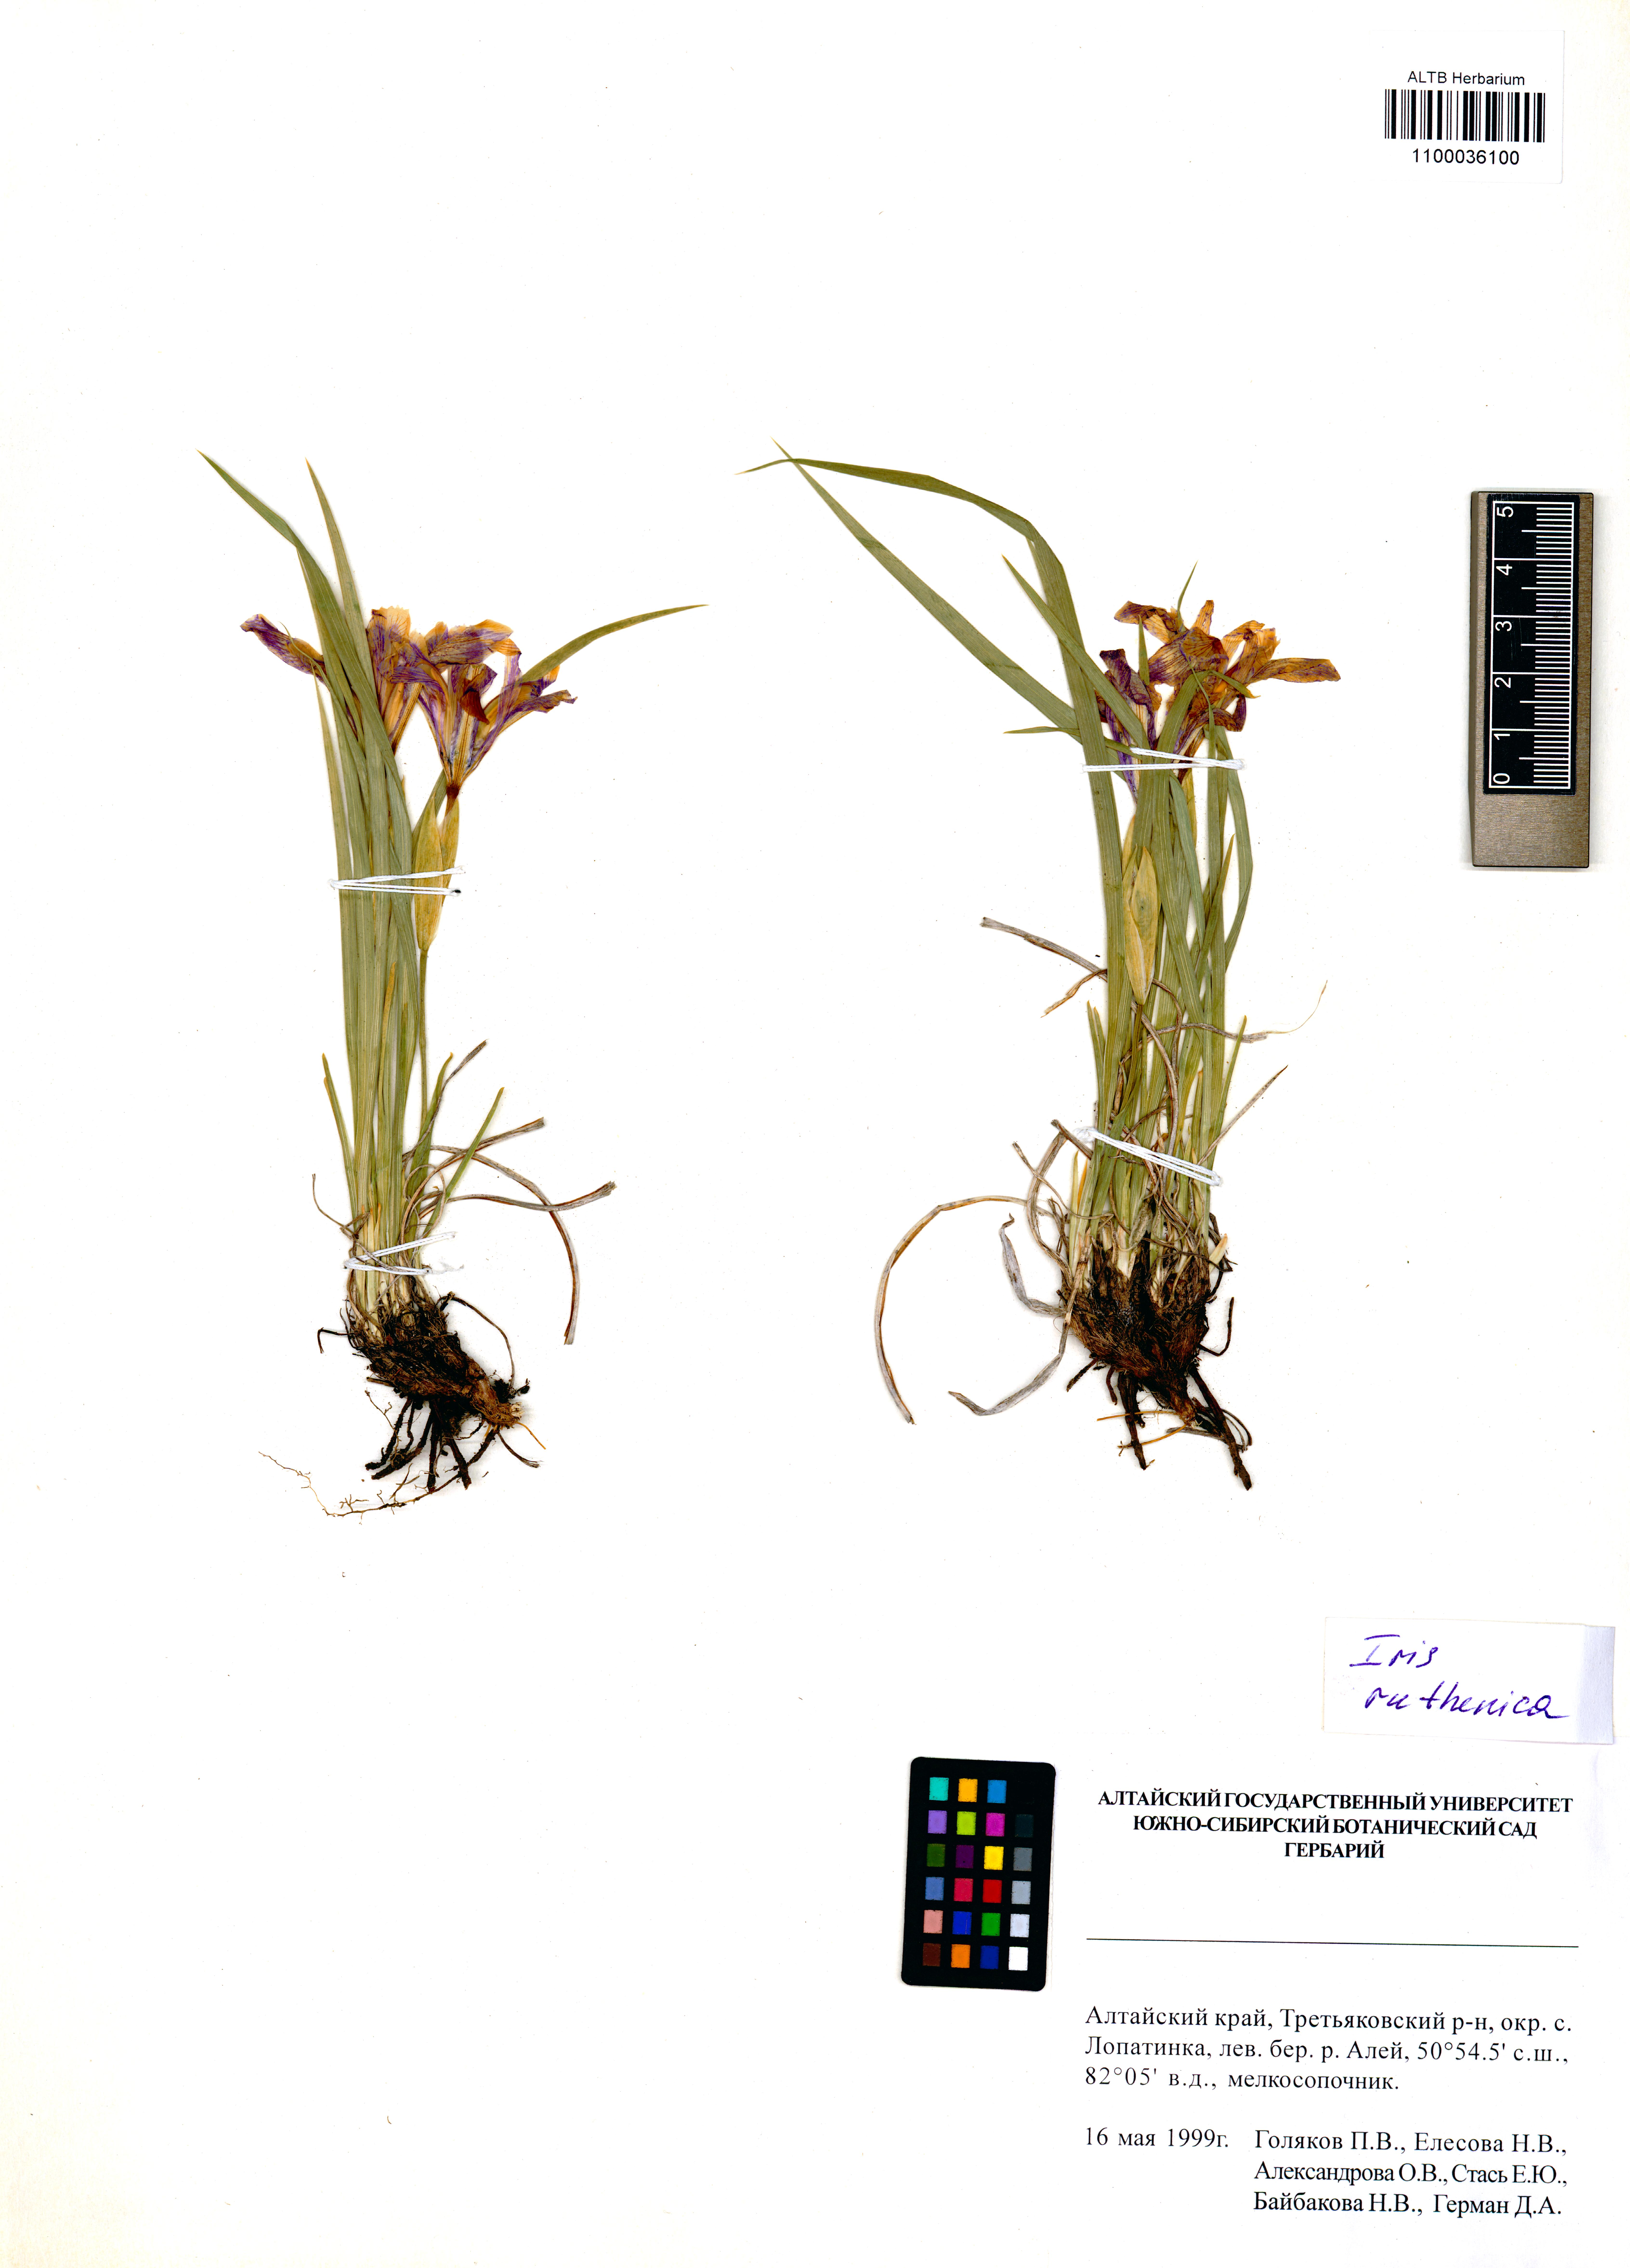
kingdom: Plantae
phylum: Tracheophyta
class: Liliopsida
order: Asparagales
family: Iridaceae
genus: Iris
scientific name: Iris ruthenica
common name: Purple-bract iris
